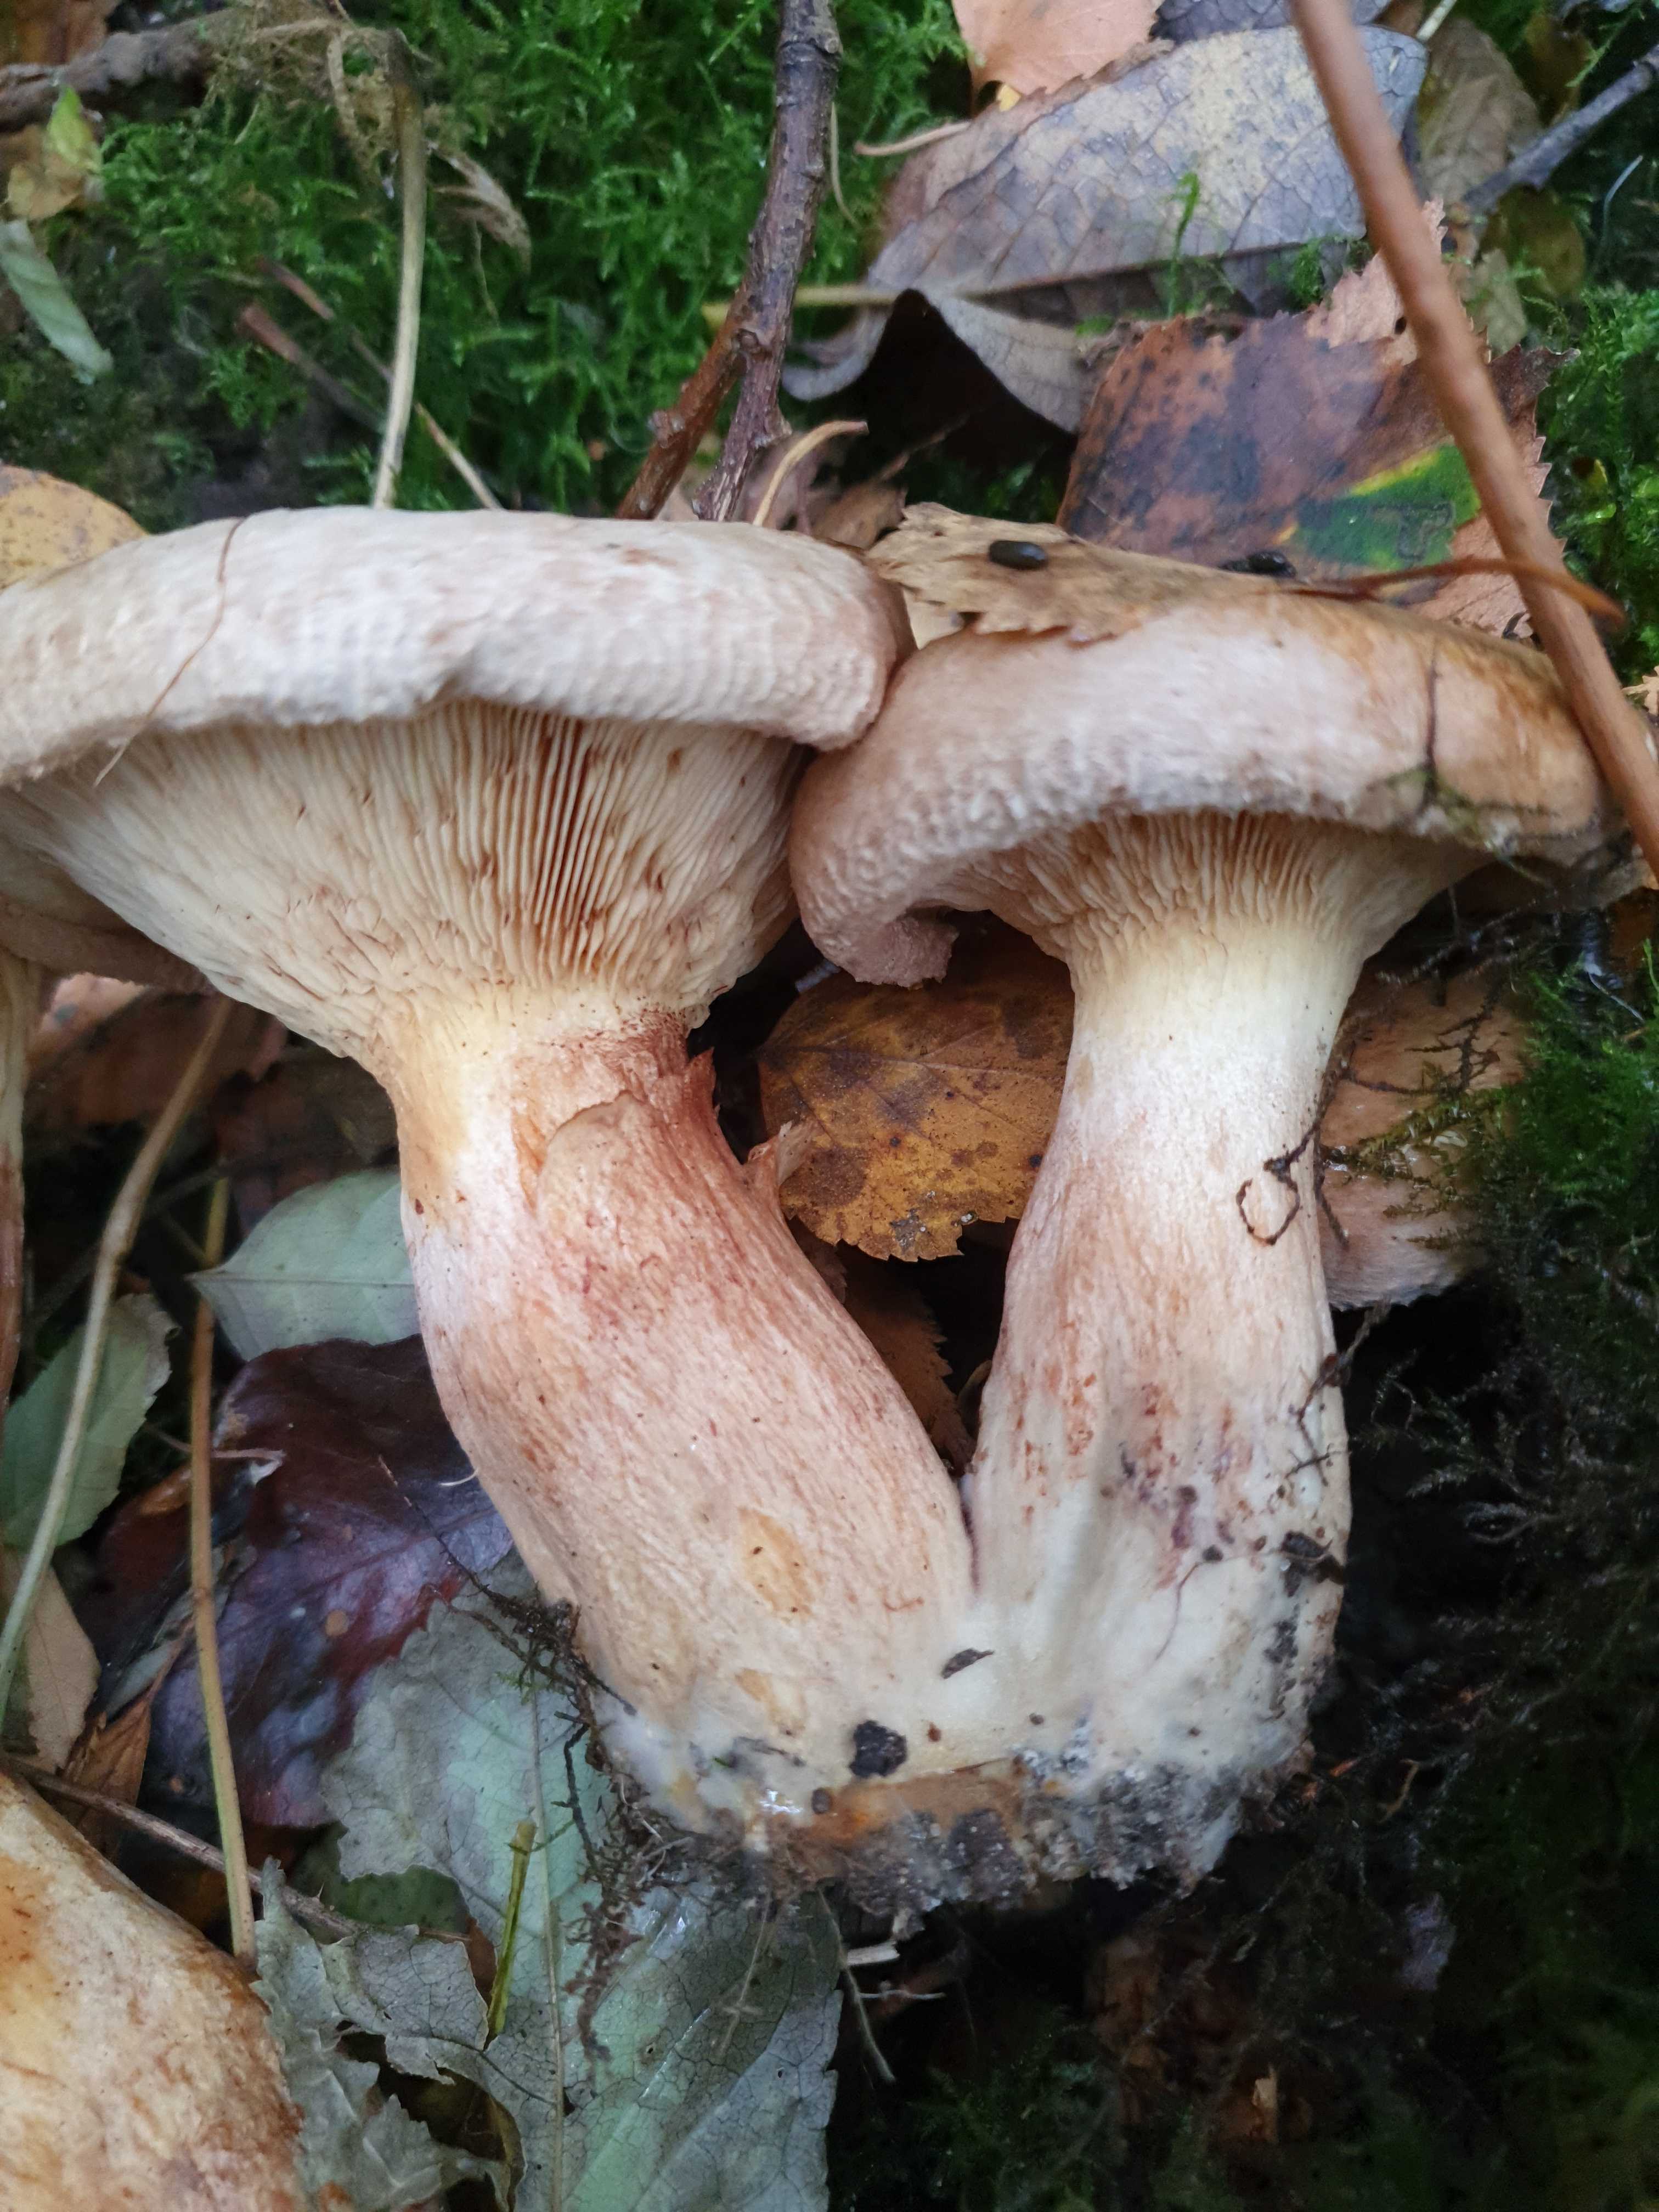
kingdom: Fungi
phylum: Basidiomycota
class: Agaricomycetes
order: Boletales
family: Paxillaceae
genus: Paxillus
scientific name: Paxillus obscurisporus
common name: mahognisporet netbladhat
